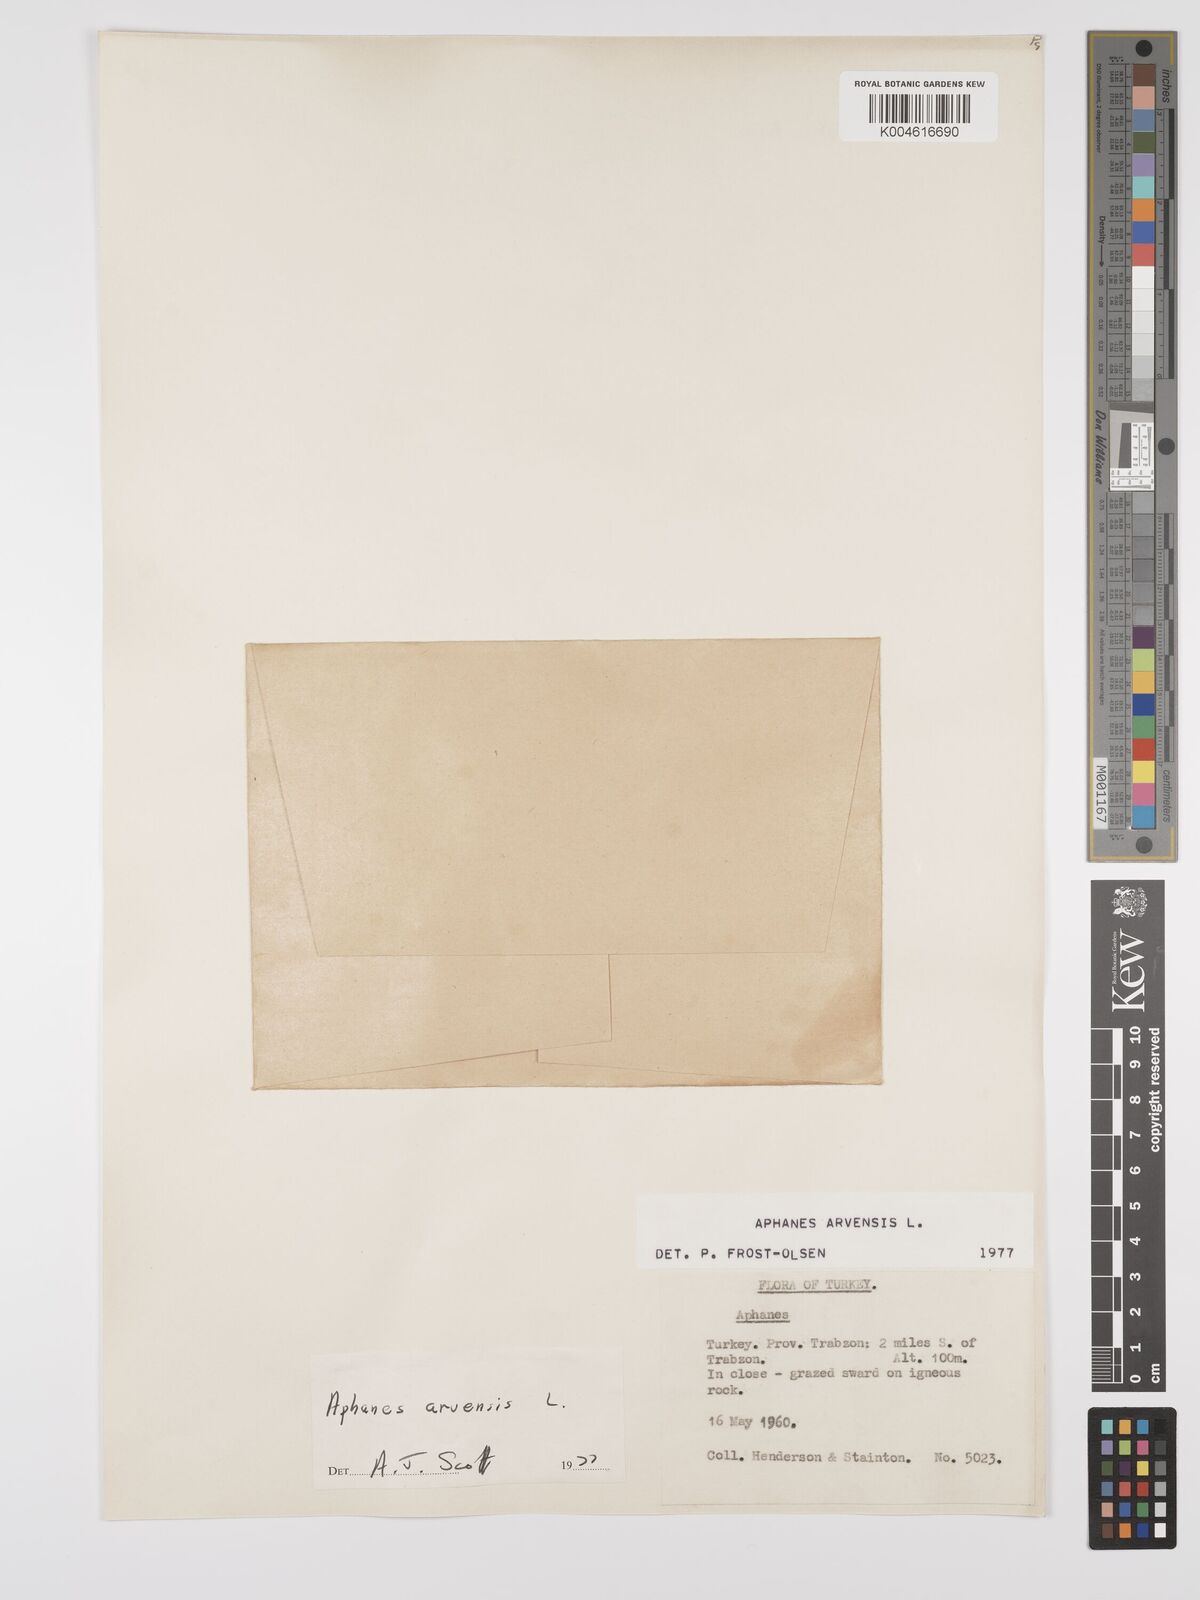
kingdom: Plantae
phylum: Tracheophyta
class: Magnoliopsida
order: Rosales
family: Rosaceae
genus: Aphanes
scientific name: Aphanes arvensis
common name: Parsley-piert
